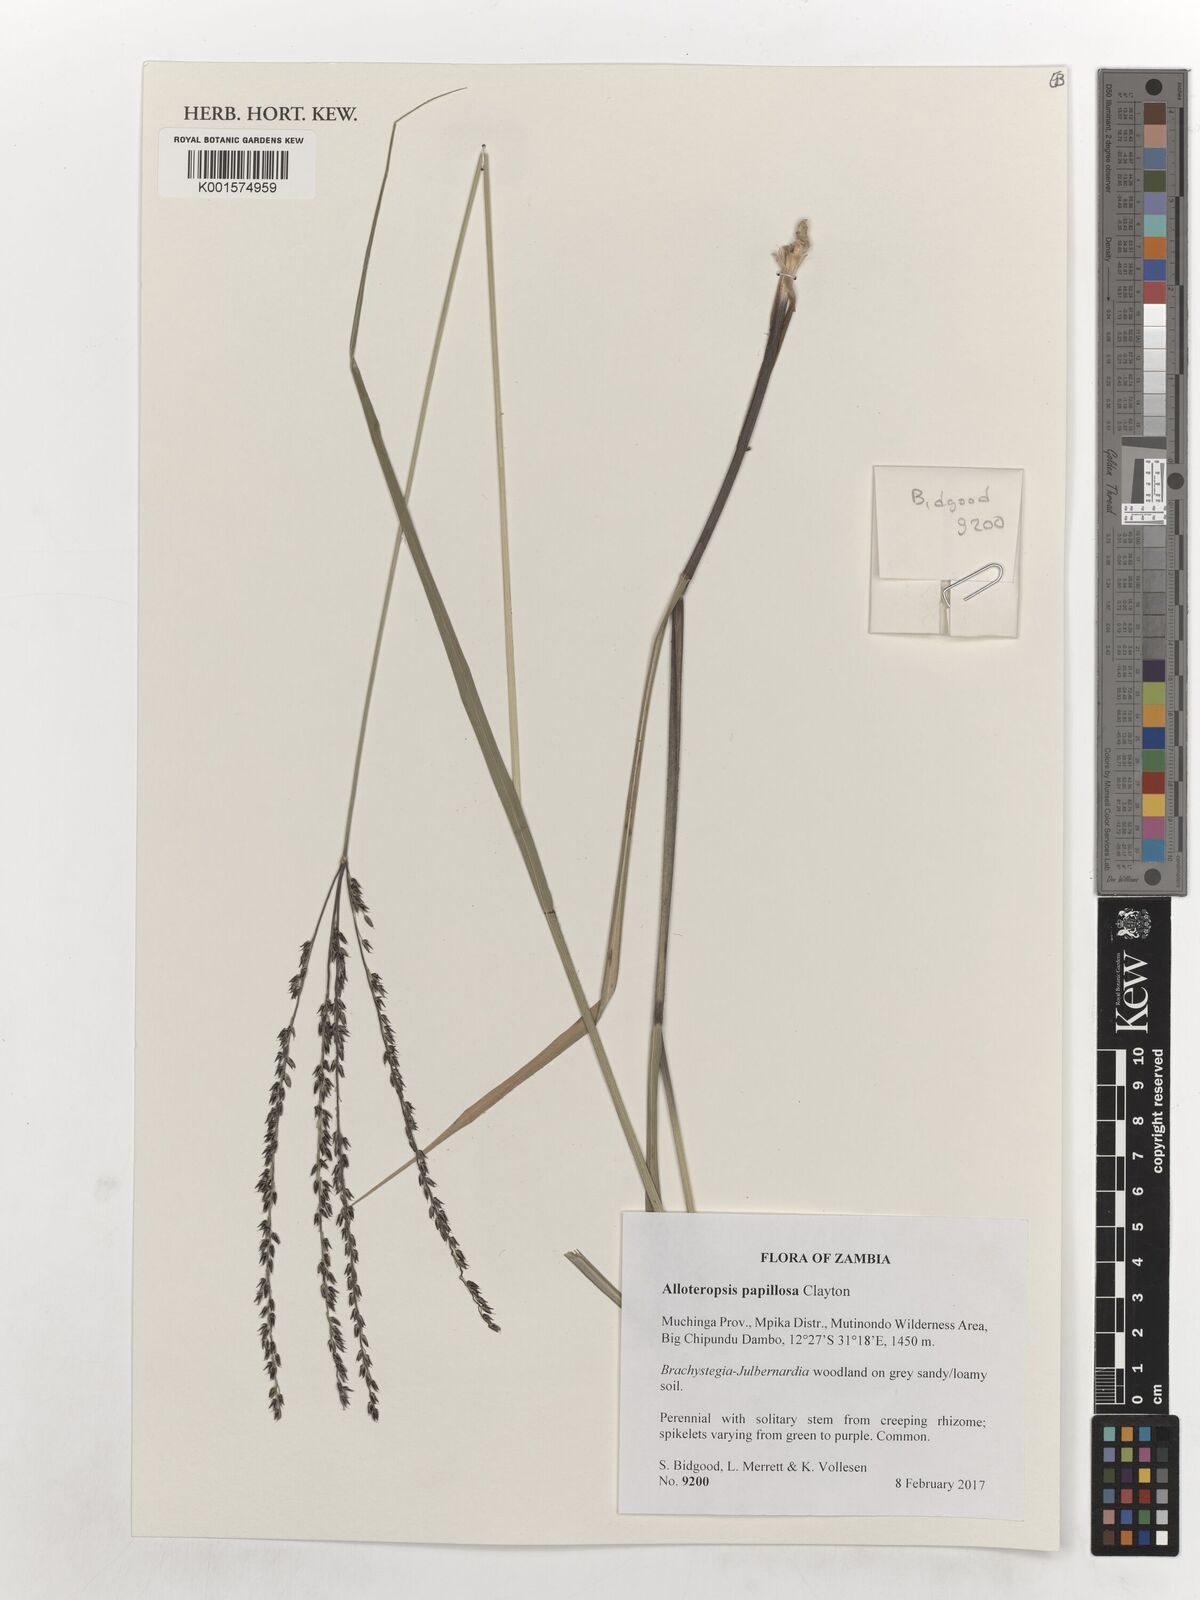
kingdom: Plantae
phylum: Tracheophyta
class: Liliopsida
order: Poales
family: Poaceae
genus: Alloteropsis
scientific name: Alloteropsis papillosa
